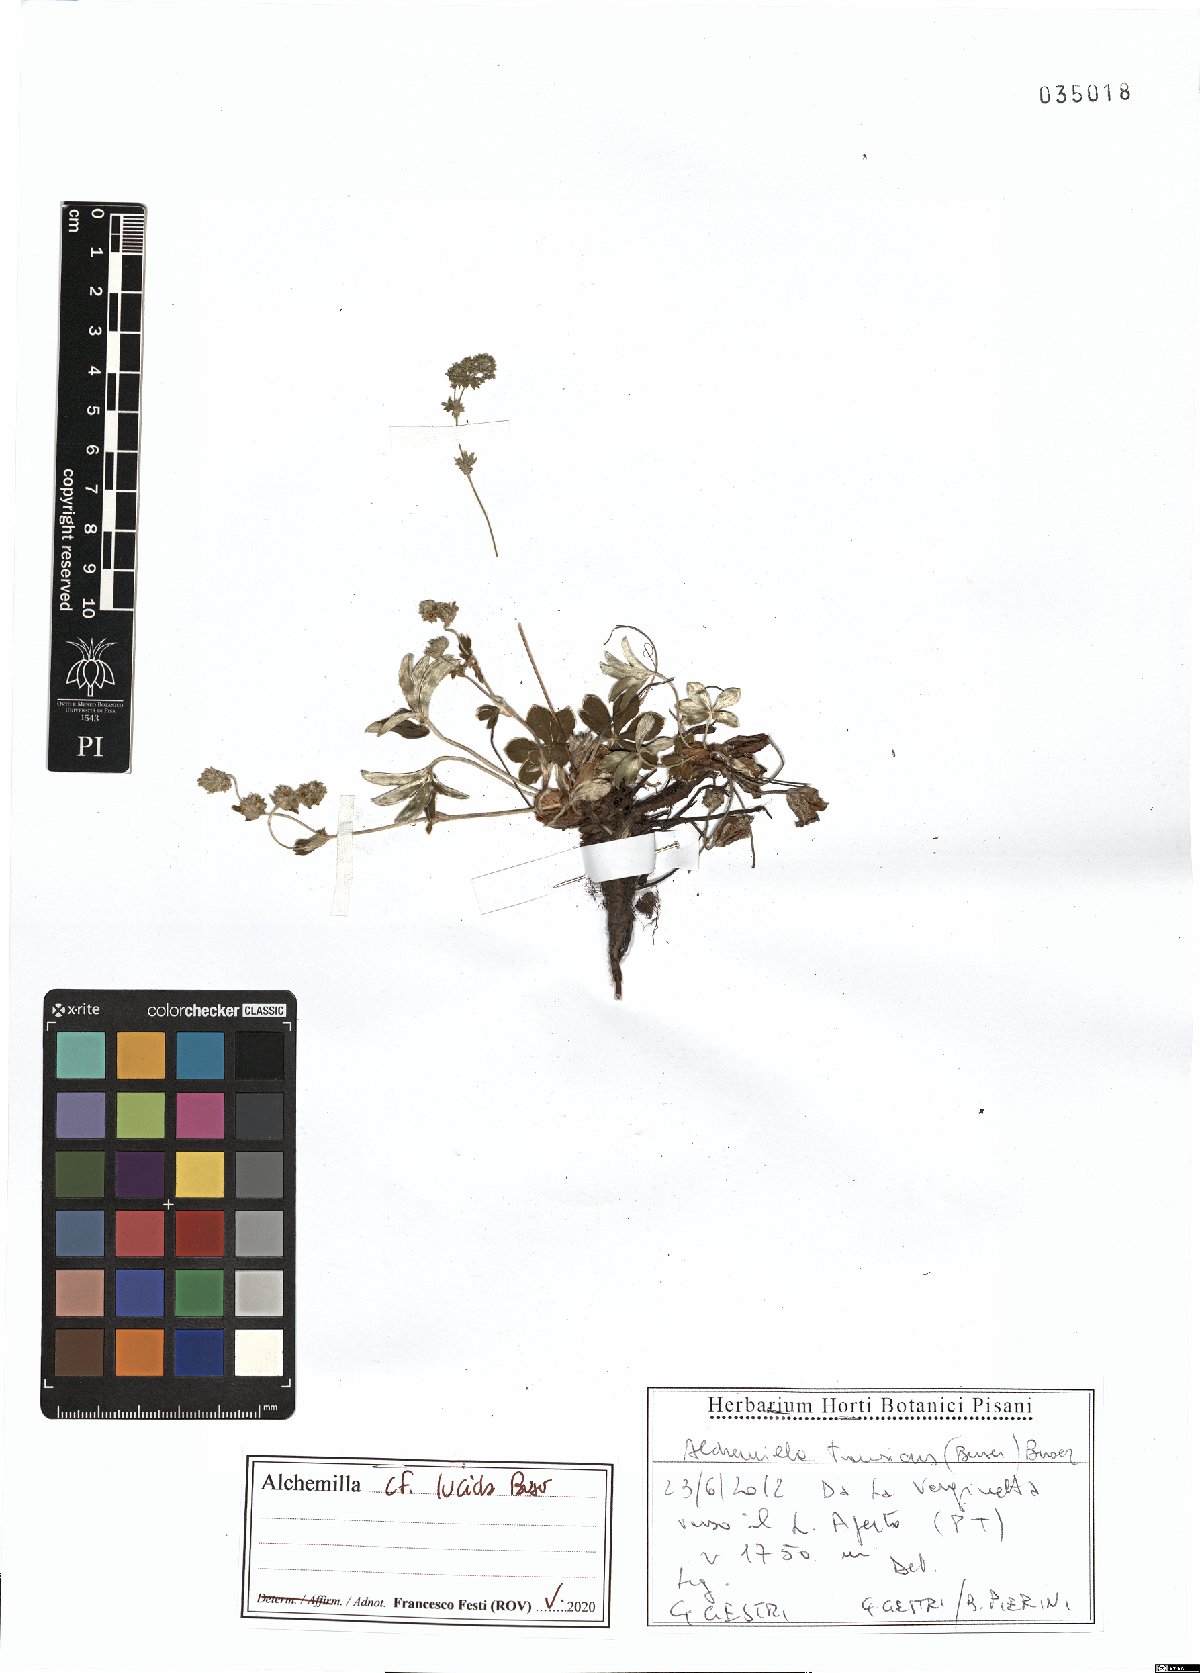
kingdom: Plantae
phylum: Tracheophyta
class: Magnoliopsida
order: Rosales
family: Rosaceae
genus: Alchemilla
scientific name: Alchemilla lucida
